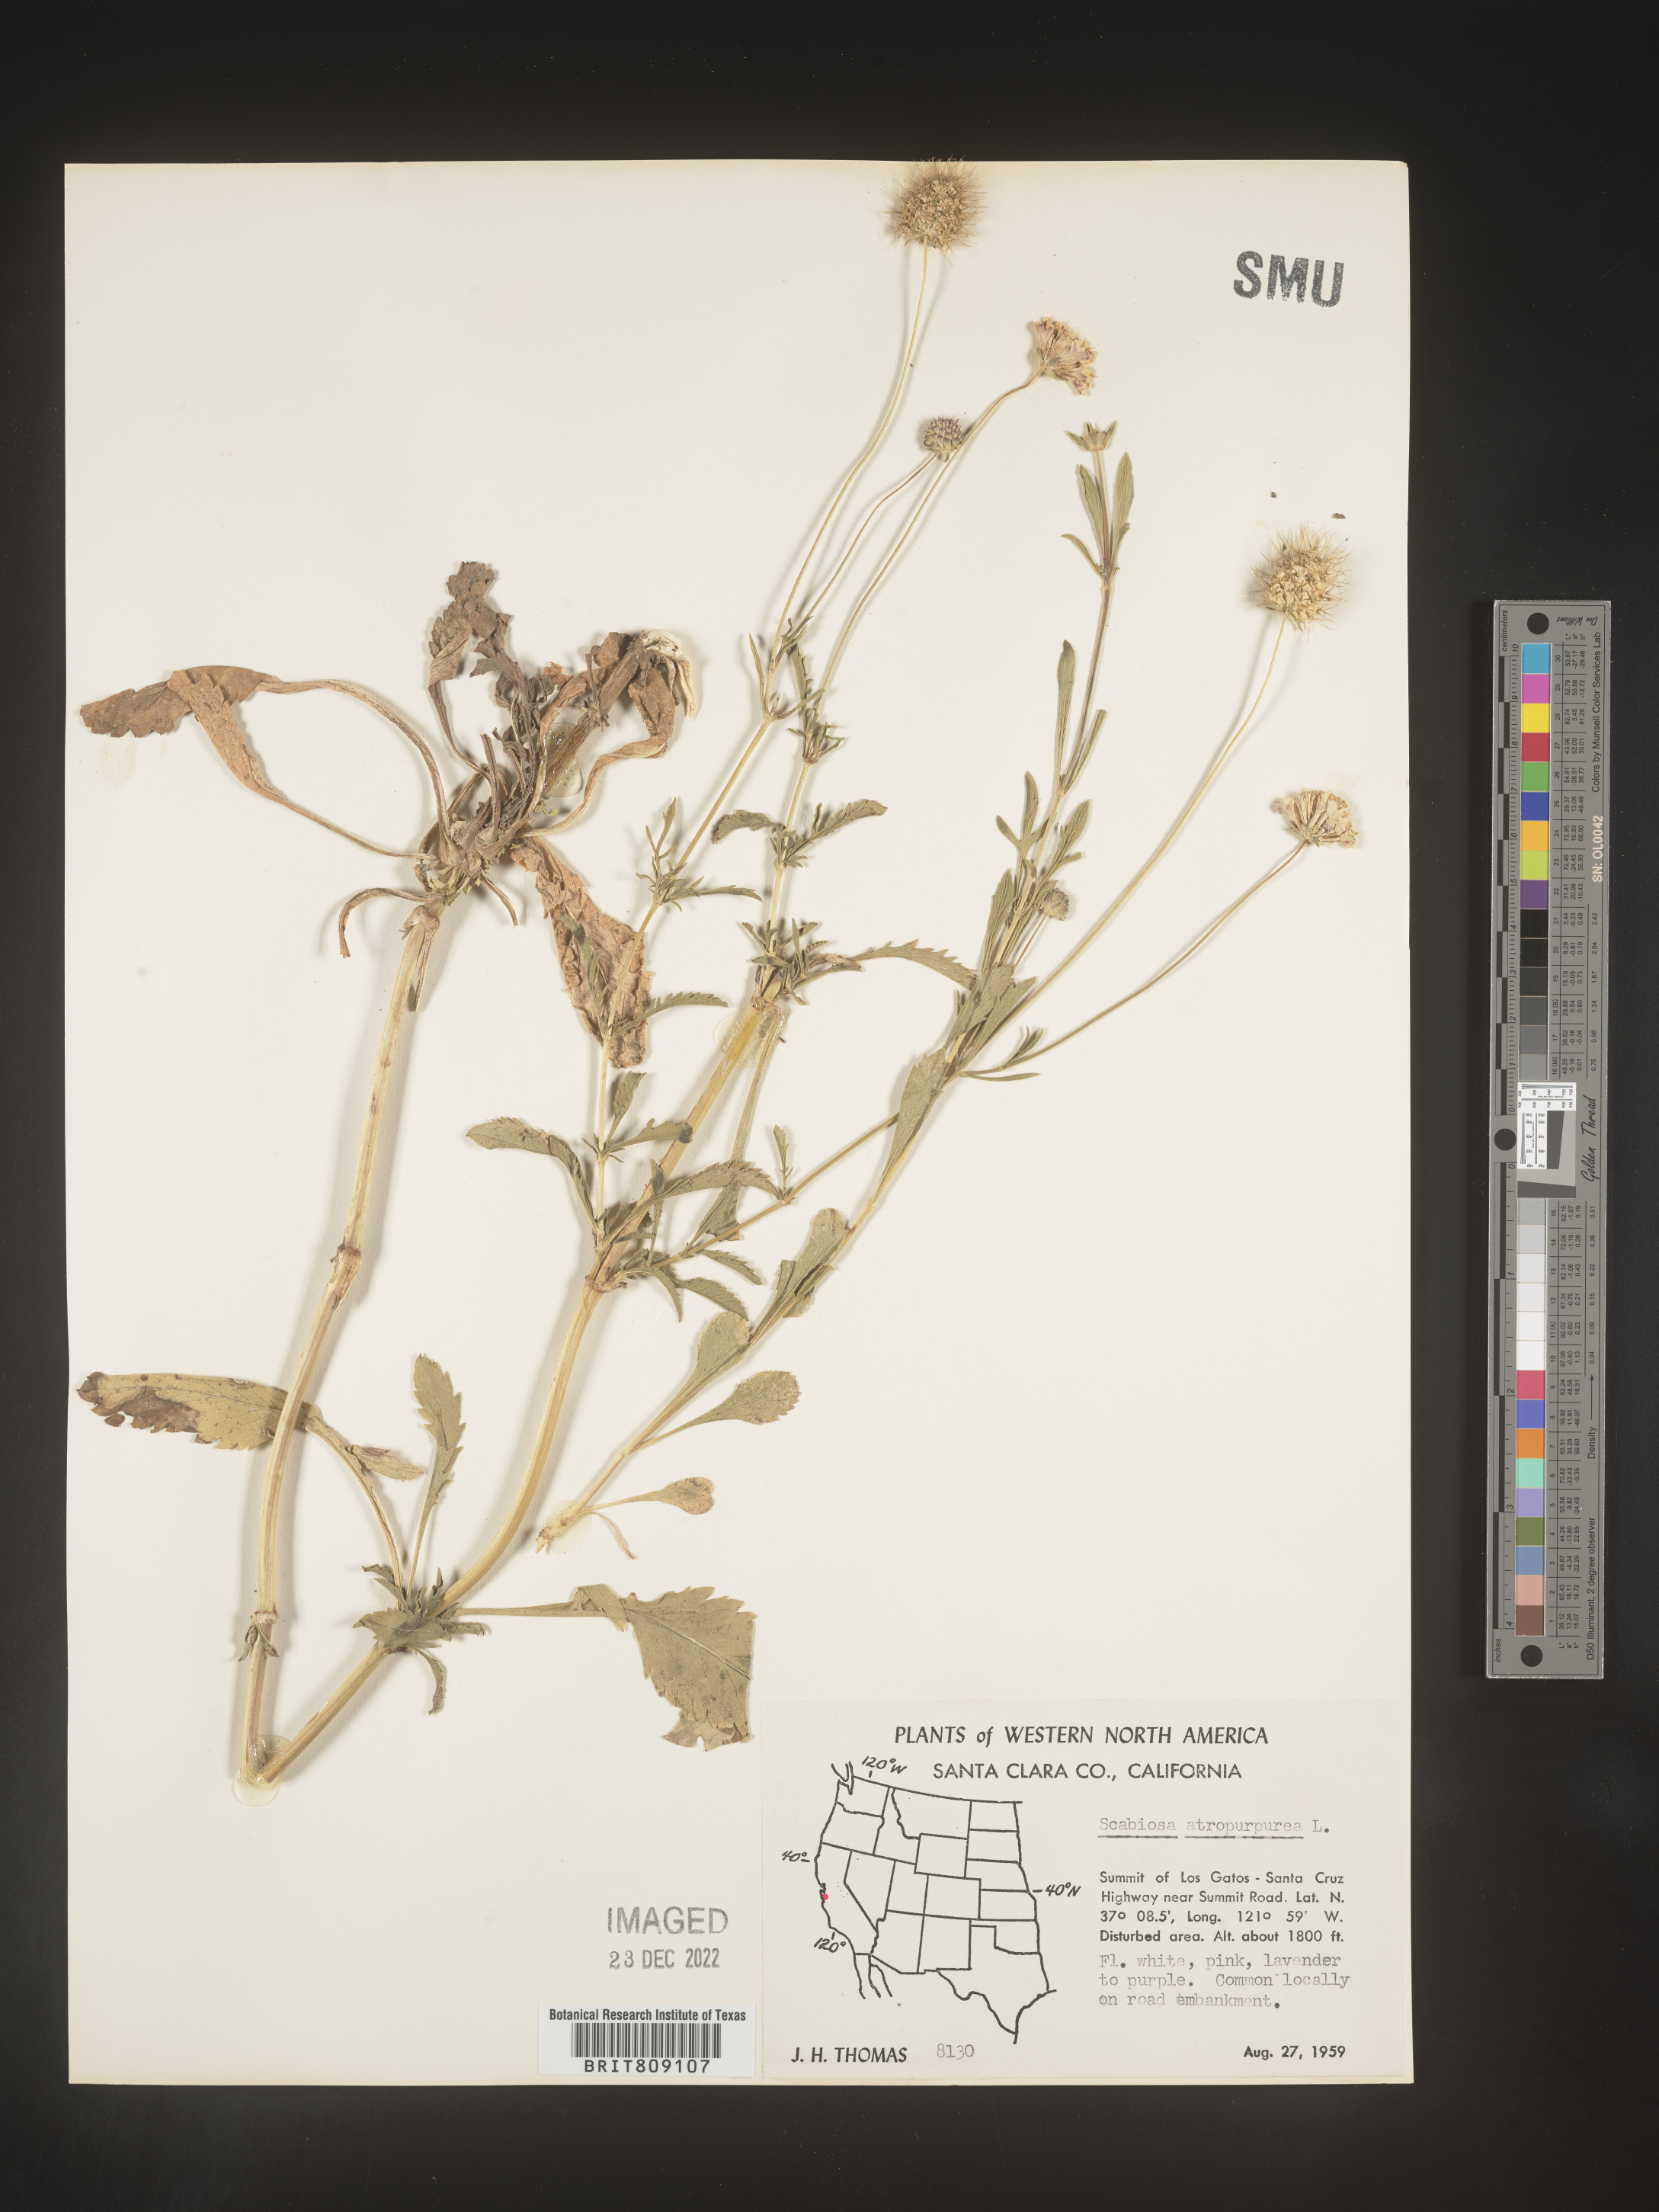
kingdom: Plantae
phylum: Tracheophyta
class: Magnoliopsida
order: Dipsacales
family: Caprifoliaceae
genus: Scabiosa
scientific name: Scabiosa
